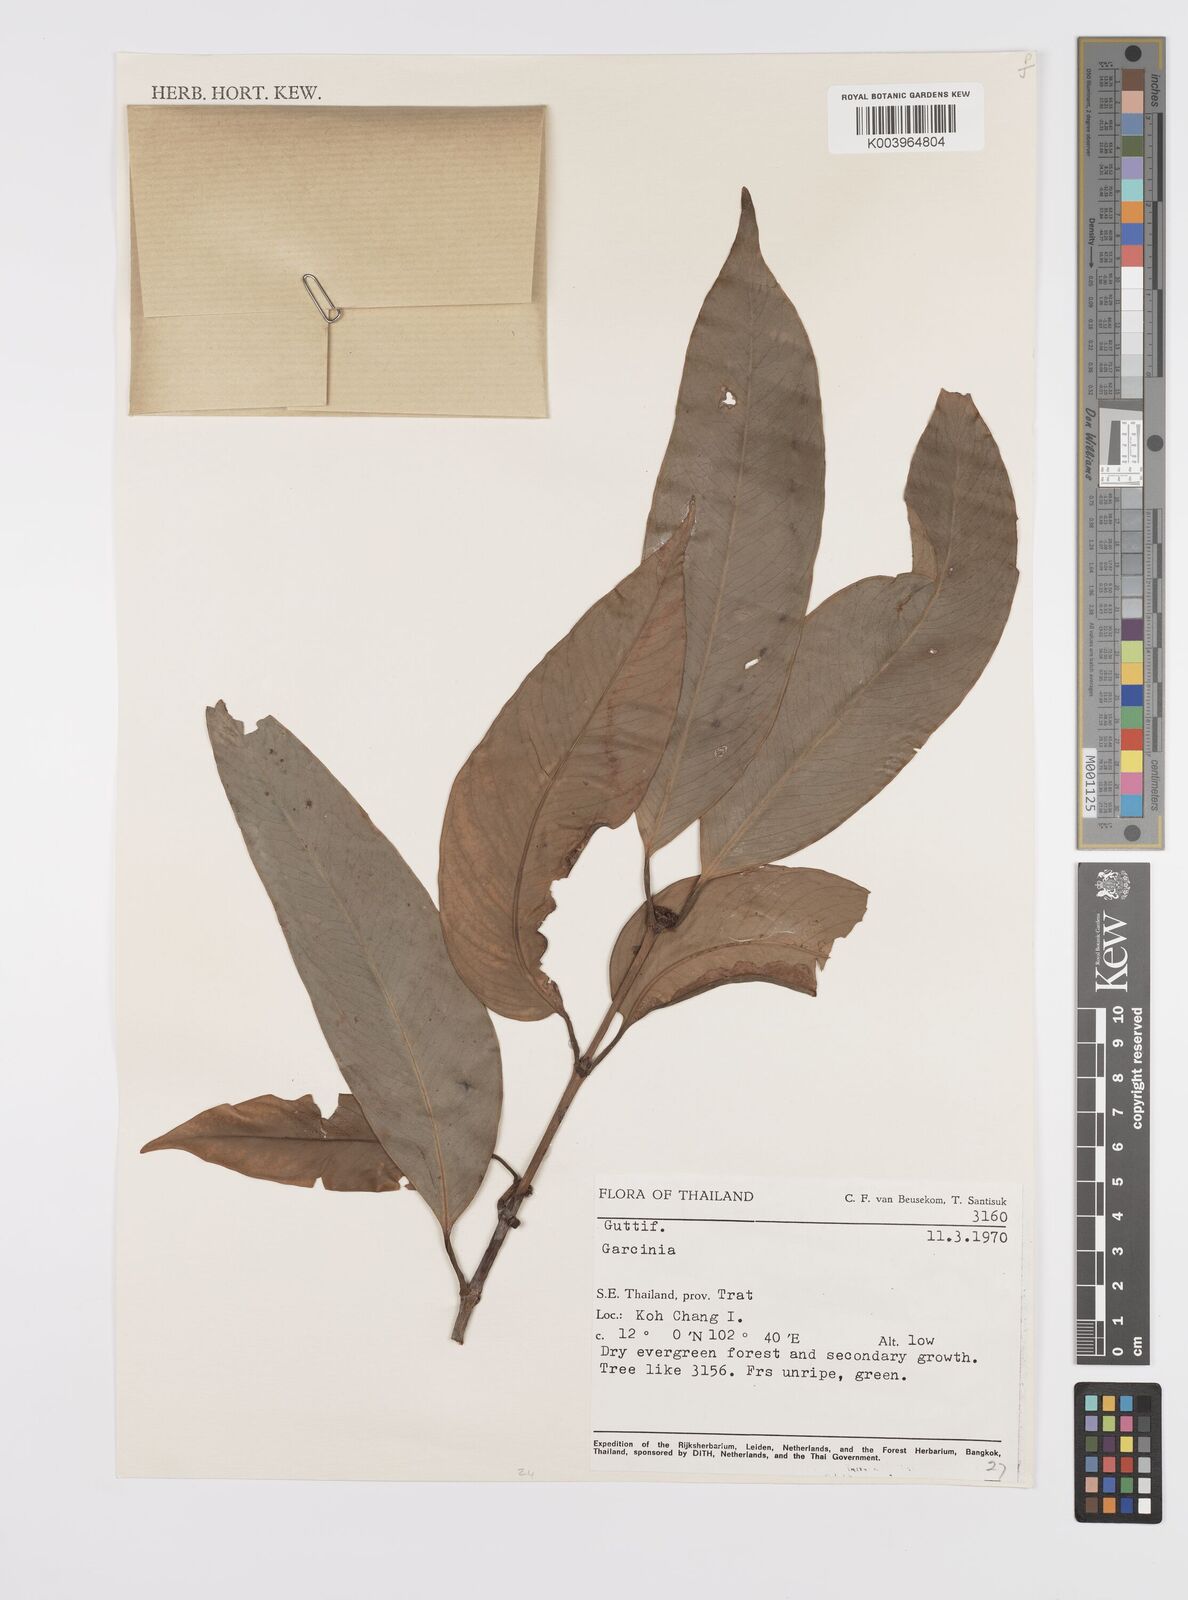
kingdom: Plantae
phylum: Tracheophyta
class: Magnoliopsida
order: Malpighiales
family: Clusiaceae
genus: Garcinia
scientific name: Garcinia
